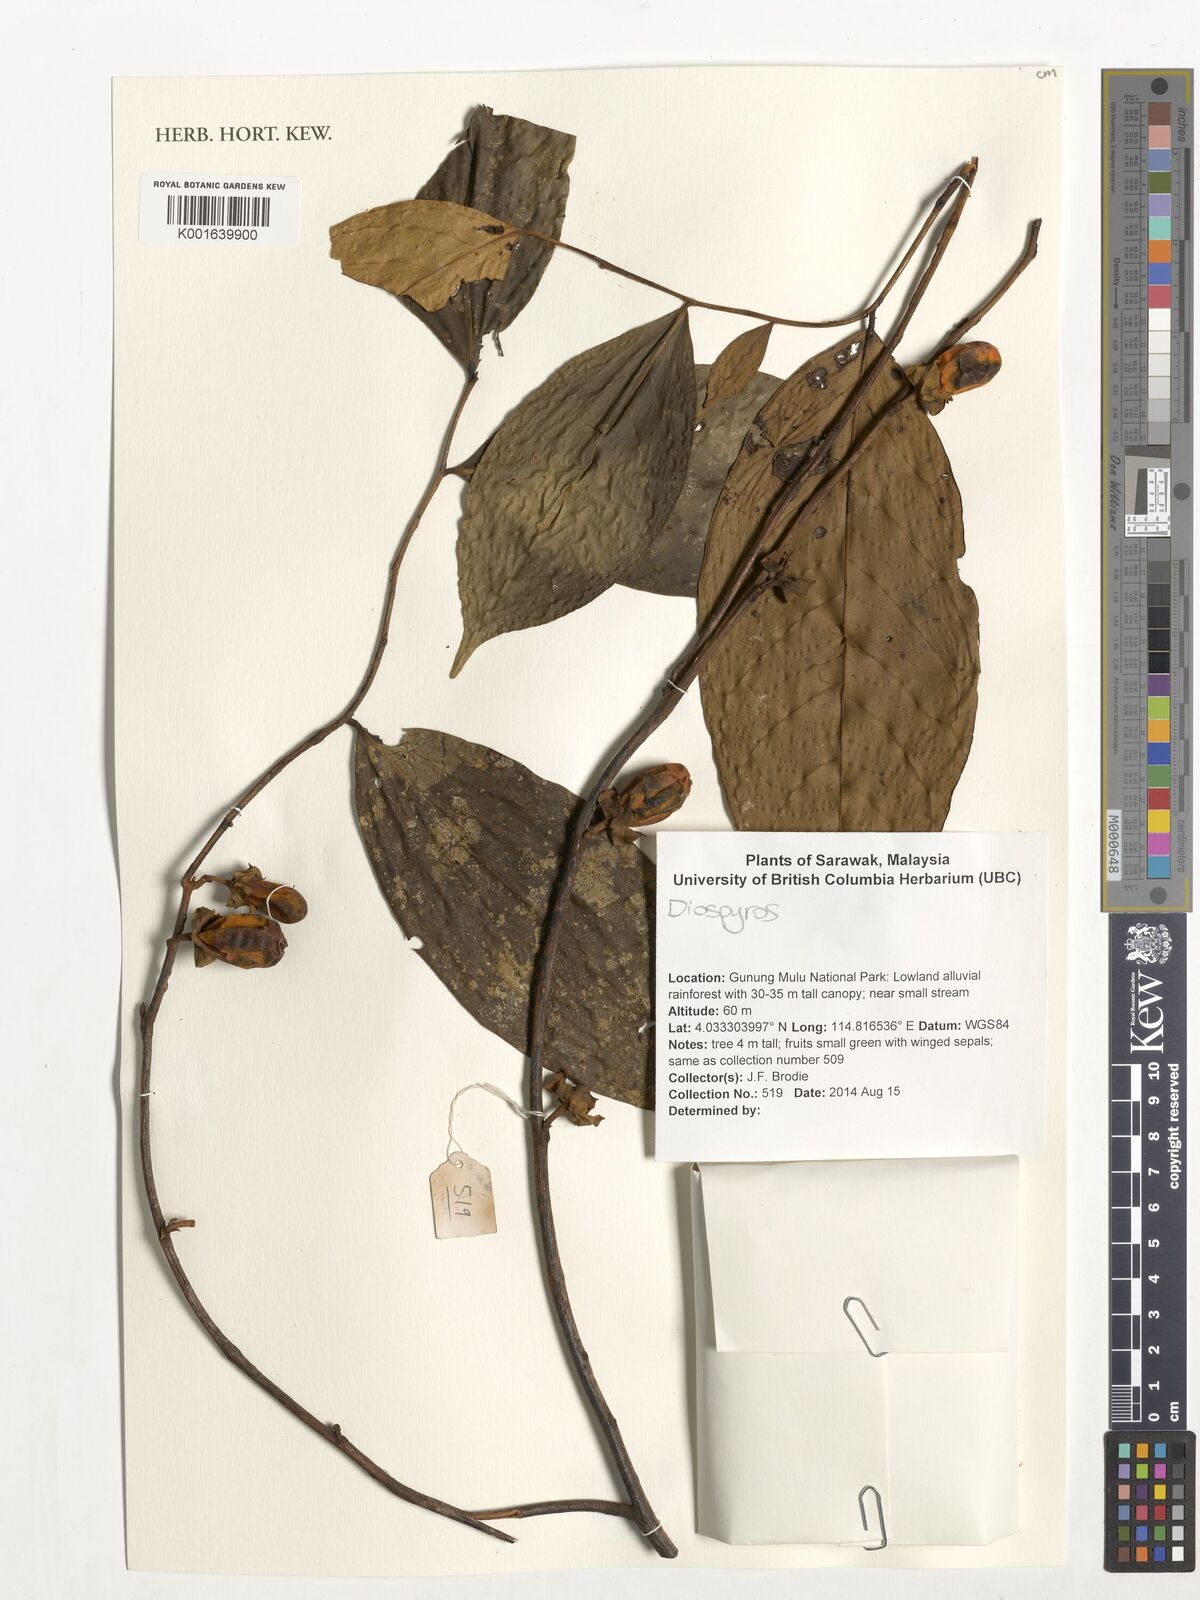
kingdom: Plantae
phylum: Tracheophyta
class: Magnoliopsida
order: Ericales
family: Ebenaceae
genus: Diospyros
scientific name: Diospyros
